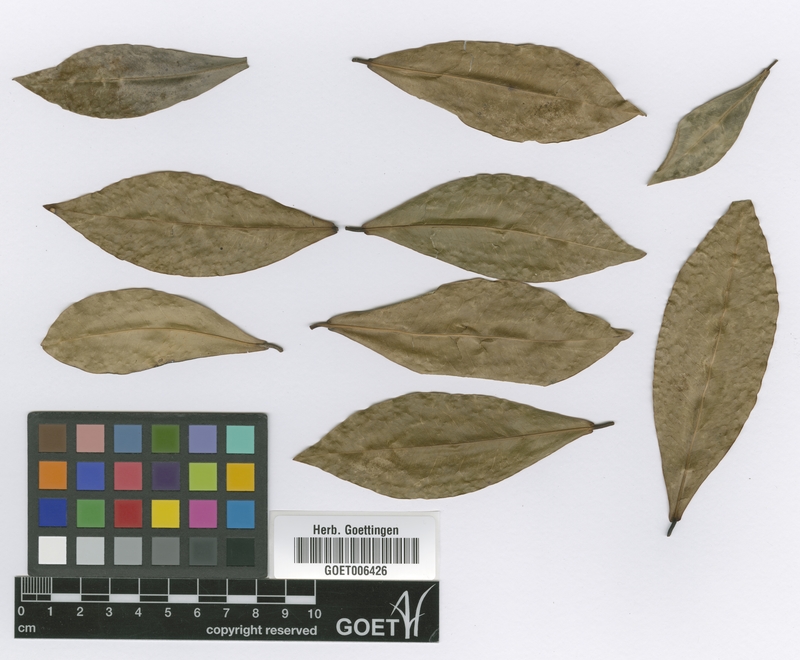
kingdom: Plantae
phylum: Tracheophyta
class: Magnoliopsida
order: Malpighiales
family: Euphorbiaceae
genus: Actinostemon
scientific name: Actinostemon concolor
